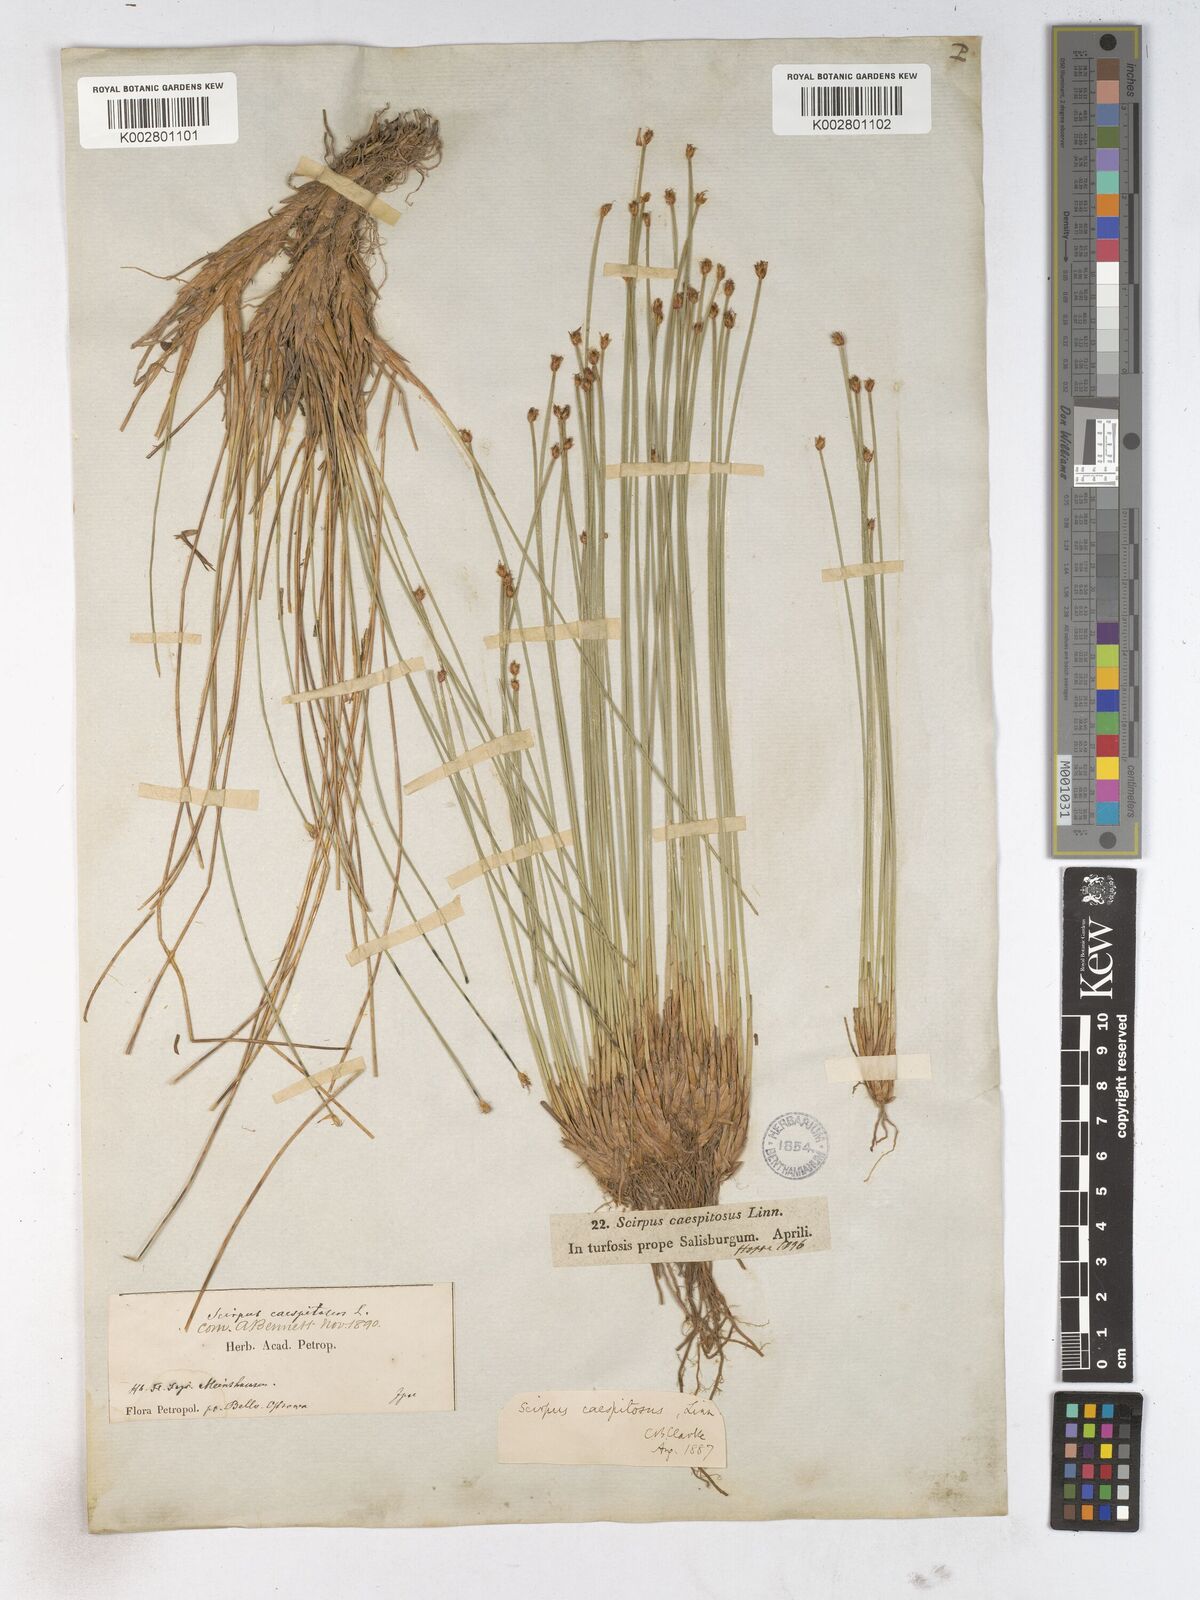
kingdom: Plantae
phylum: Tracheophyta
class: Liliopsida
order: Poales
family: Cyperaceae
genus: Trichophorum
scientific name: Trichophorum cespitosum
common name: Cespitose bulrush
